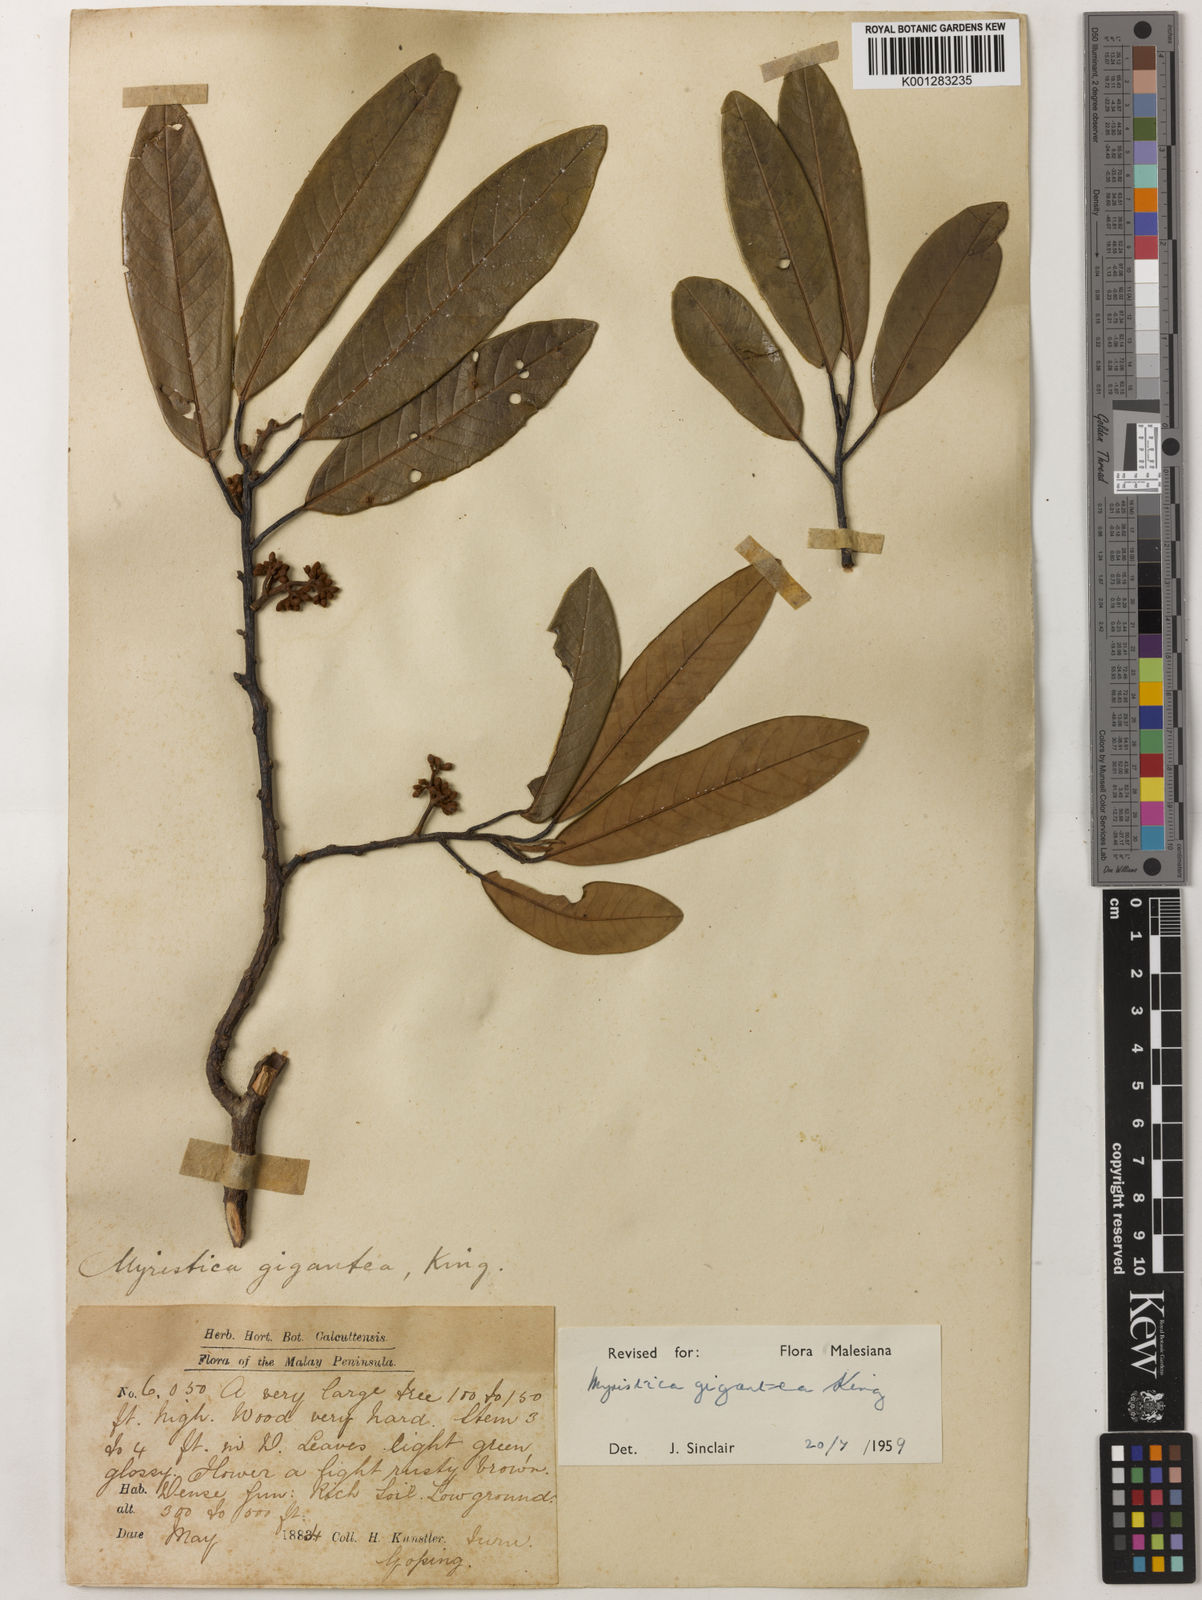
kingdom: Plantae
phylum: Tracheophyta
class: Magnoliopsida
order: Magnoliales
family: Myristicaceae
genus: Myristica
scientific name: Myristica gigantea
